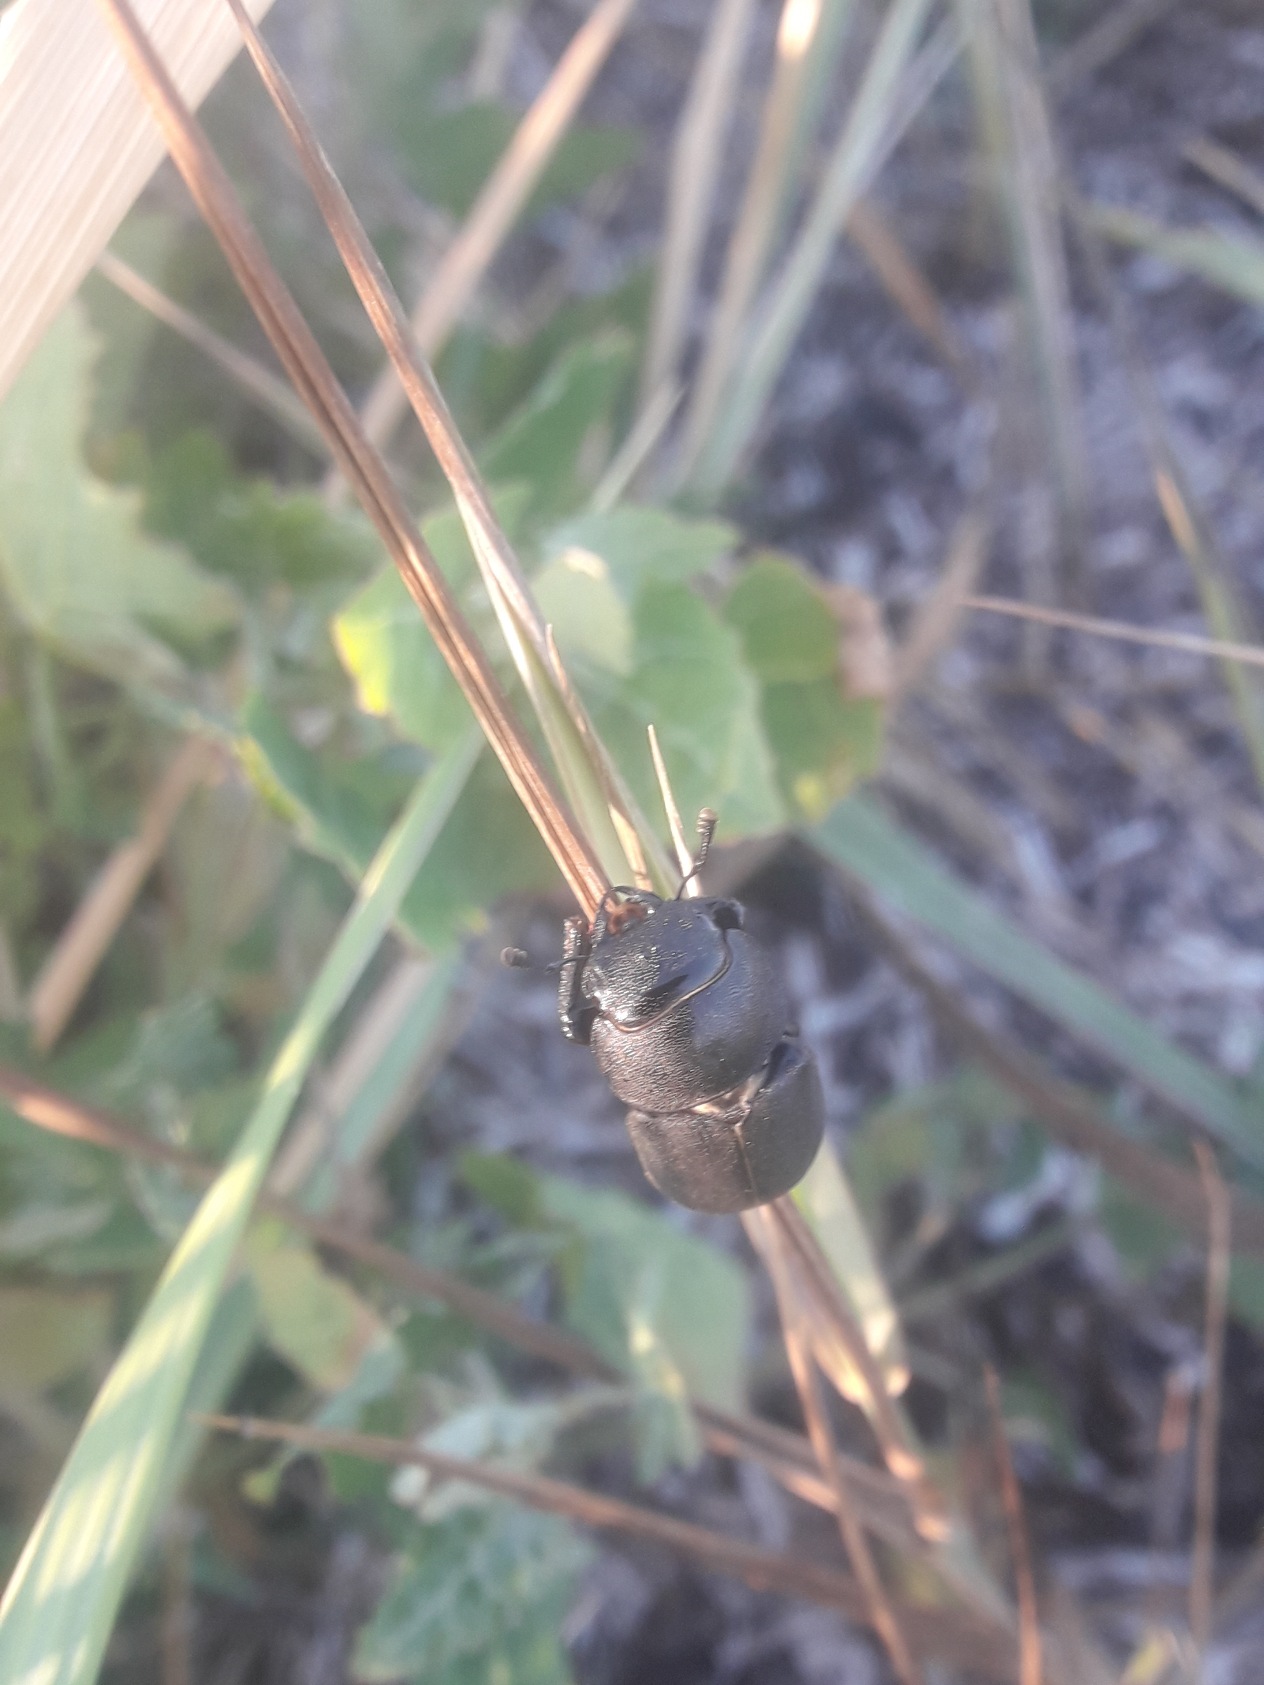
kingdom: Animalia
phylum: Arthropoda
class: Insecta
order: Coleoptera
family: Lucanidae
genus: Dorcus
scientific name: Dorcus parallelipipedus
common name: Bøghjort
